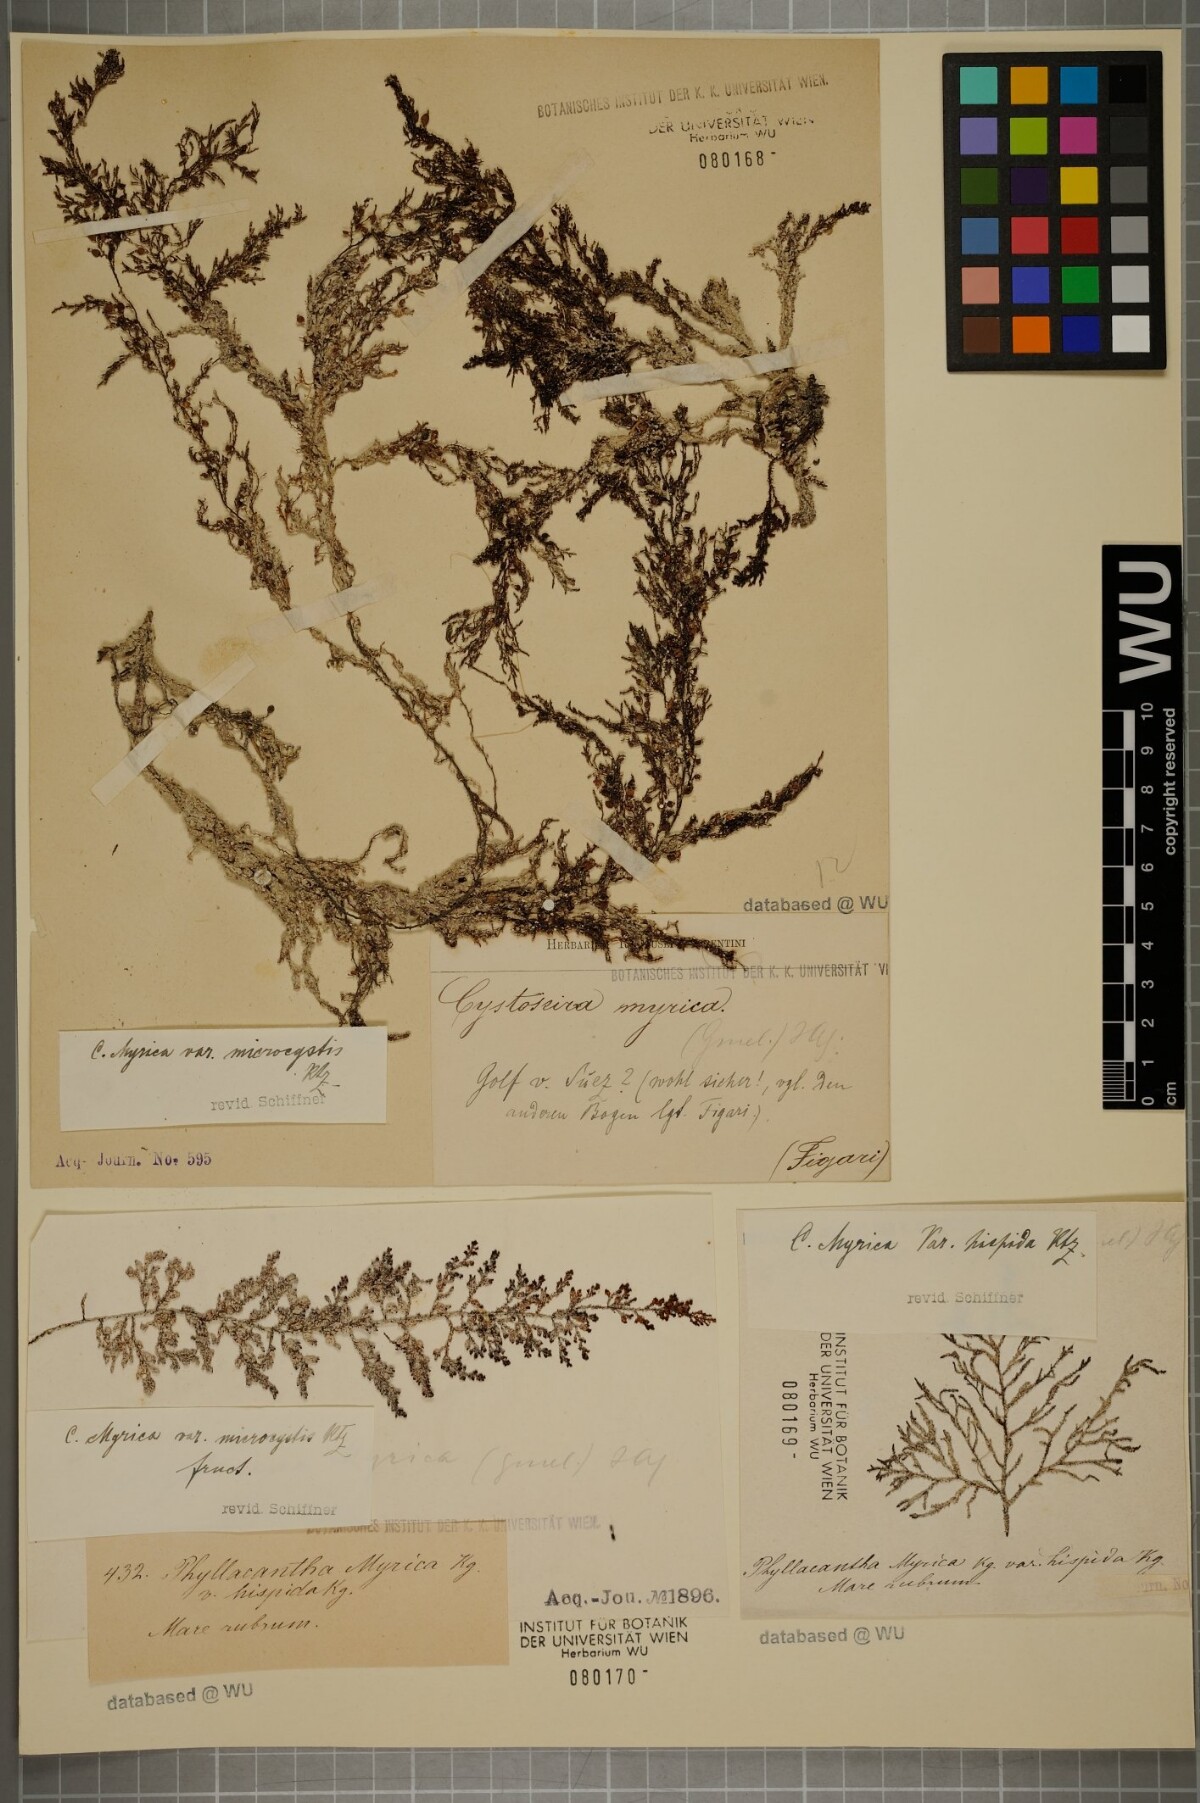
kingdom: Chromista
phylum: Ochrophyta
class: Phaeophyceae
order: Fucales
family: Sargassaceae
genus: Polycladia
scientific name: Polycladia myrica
